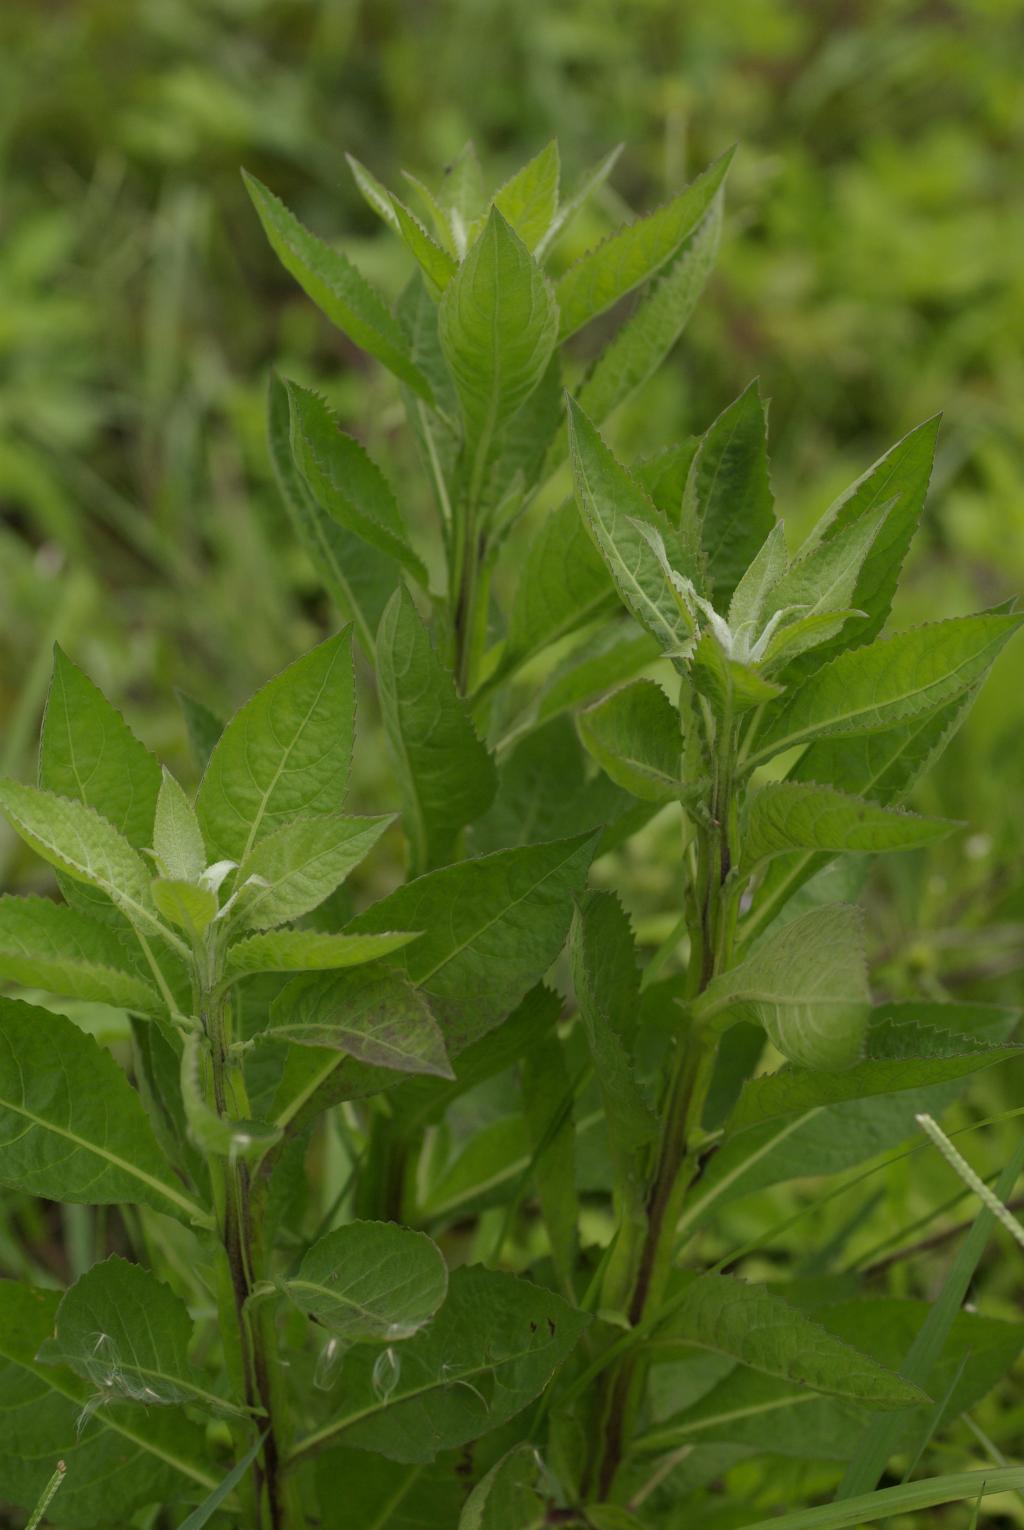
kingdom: Plantae
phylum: Tracheophyta
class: Magnoliopsida
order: Asterales
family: Asteraceae
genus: Pluchea
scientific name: Pluchea sagittalis
